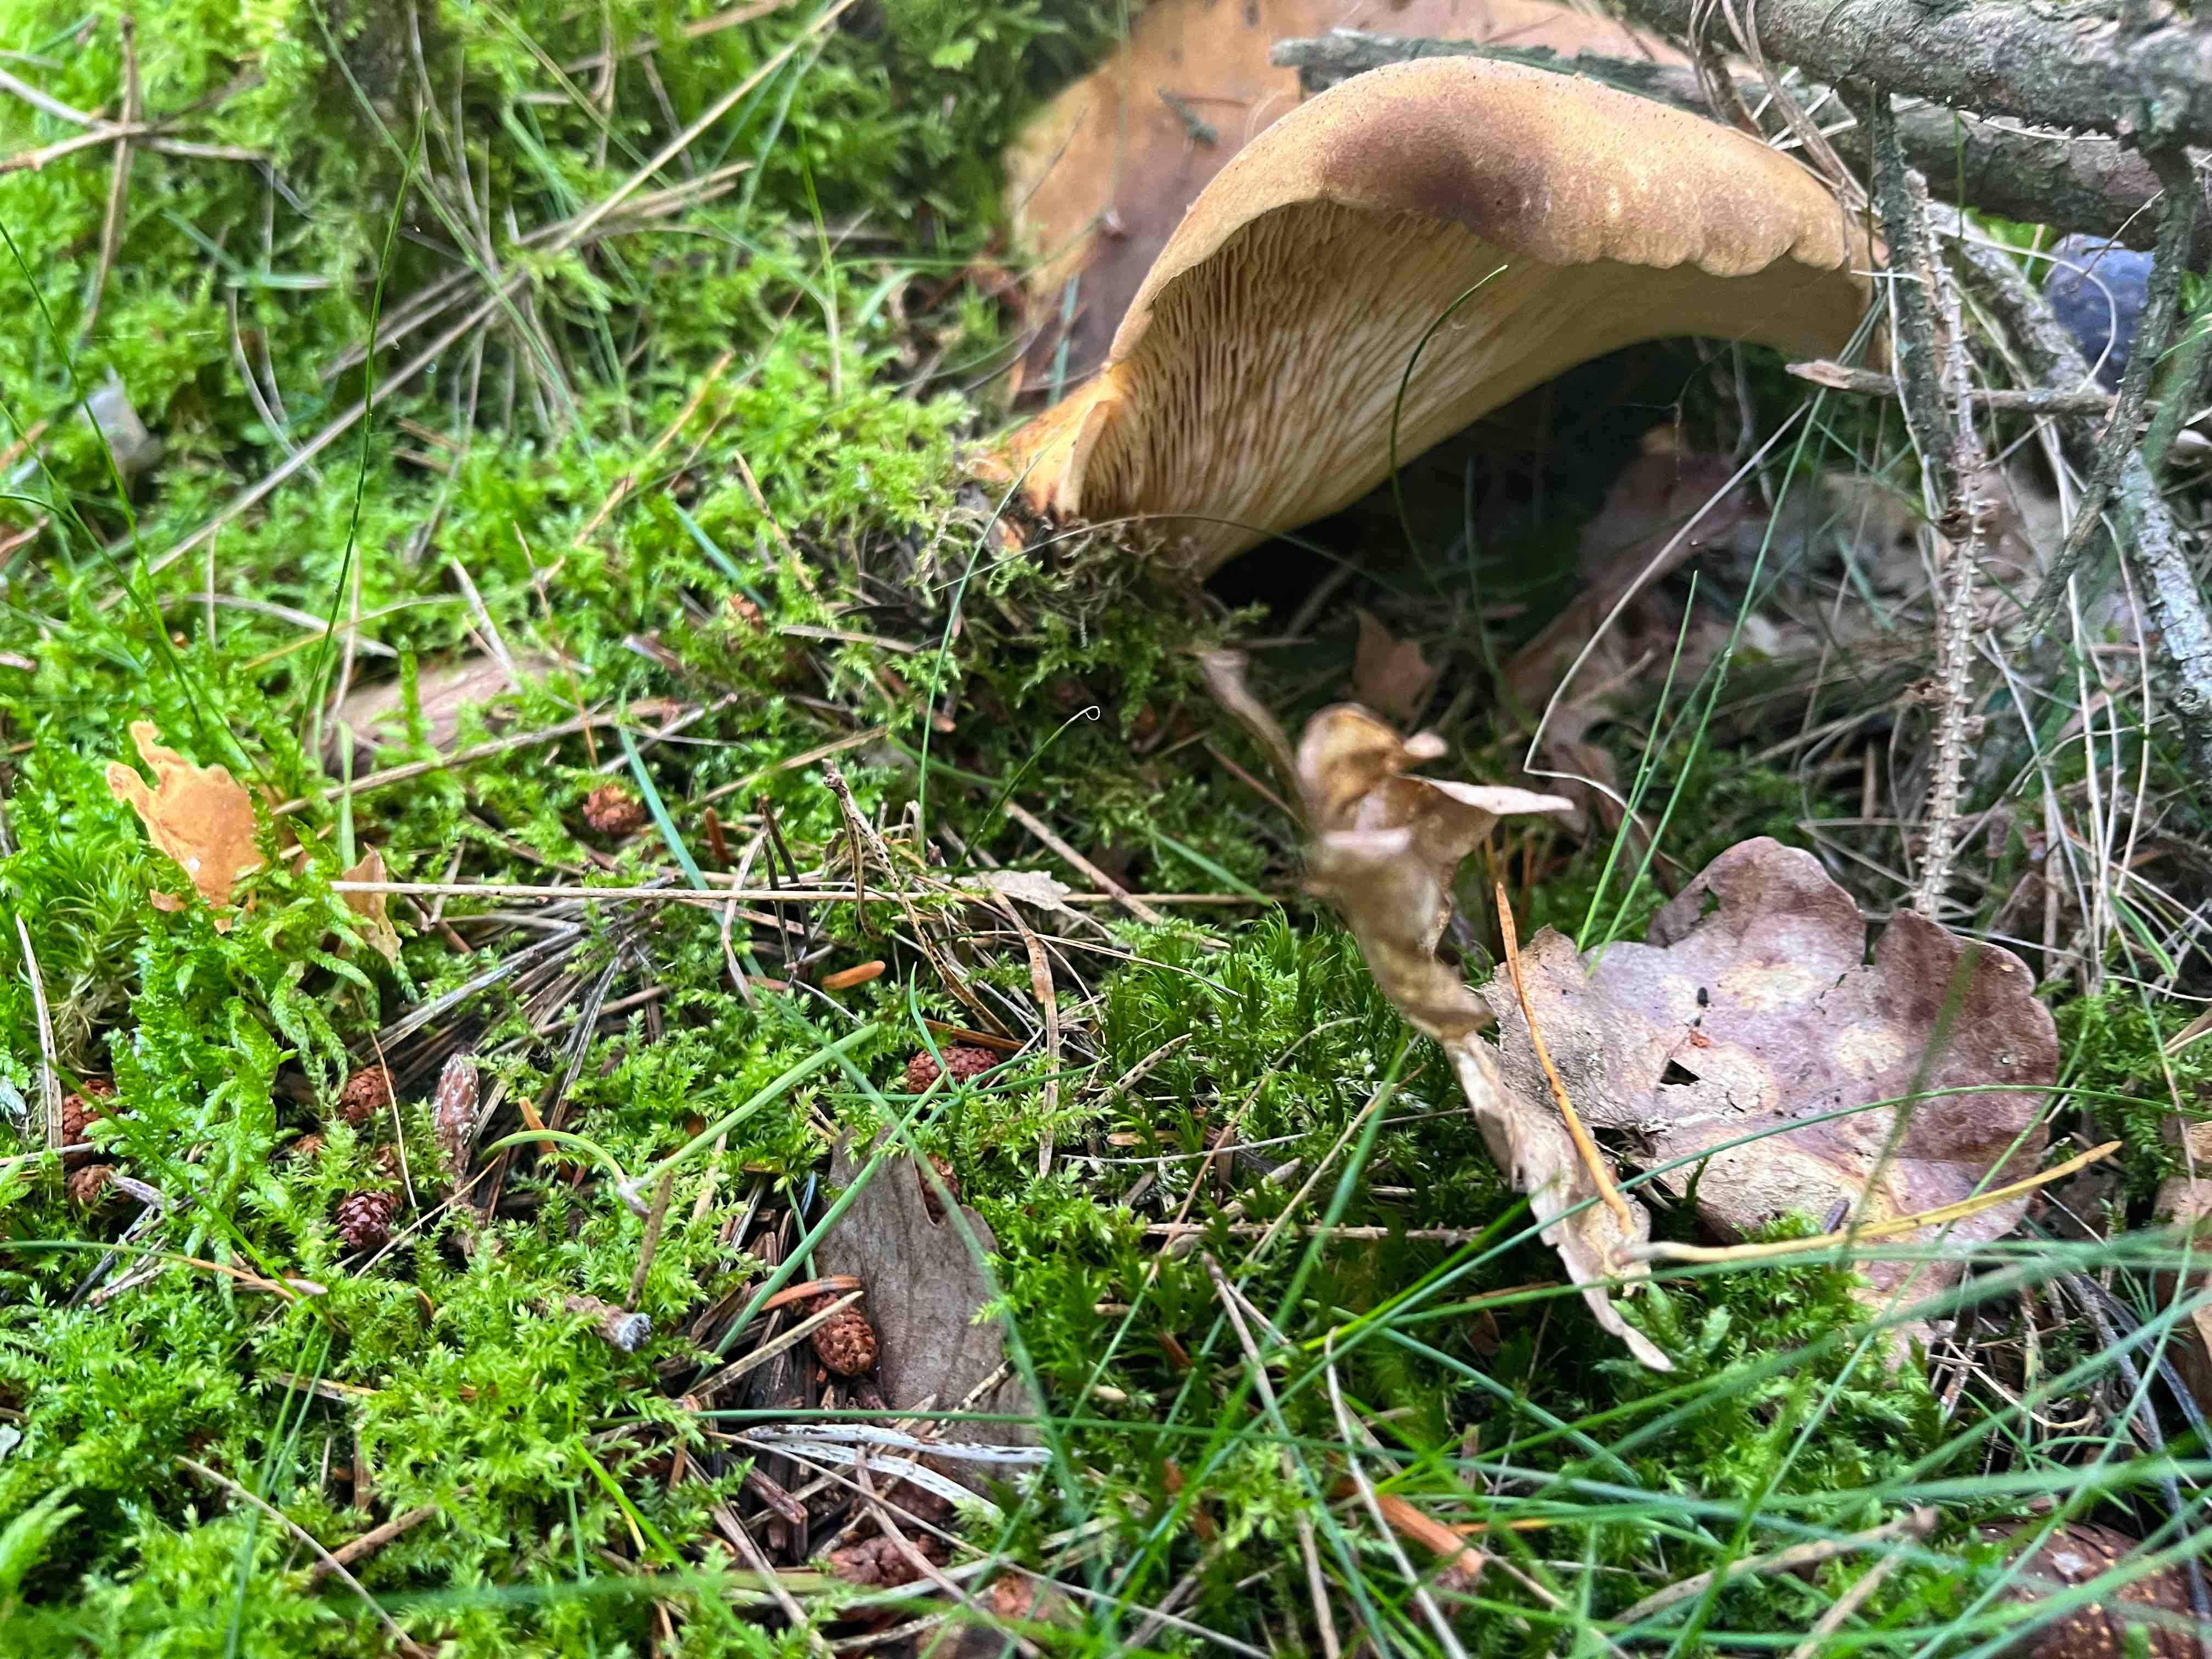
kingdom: Fungi
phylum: Basidiomycota
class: Agaricomycetes
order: Boletales
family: Tapinellaceae
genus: Tapinella
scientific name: Tapinella atrotomentosa
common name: sortfiltet viftesvamp
